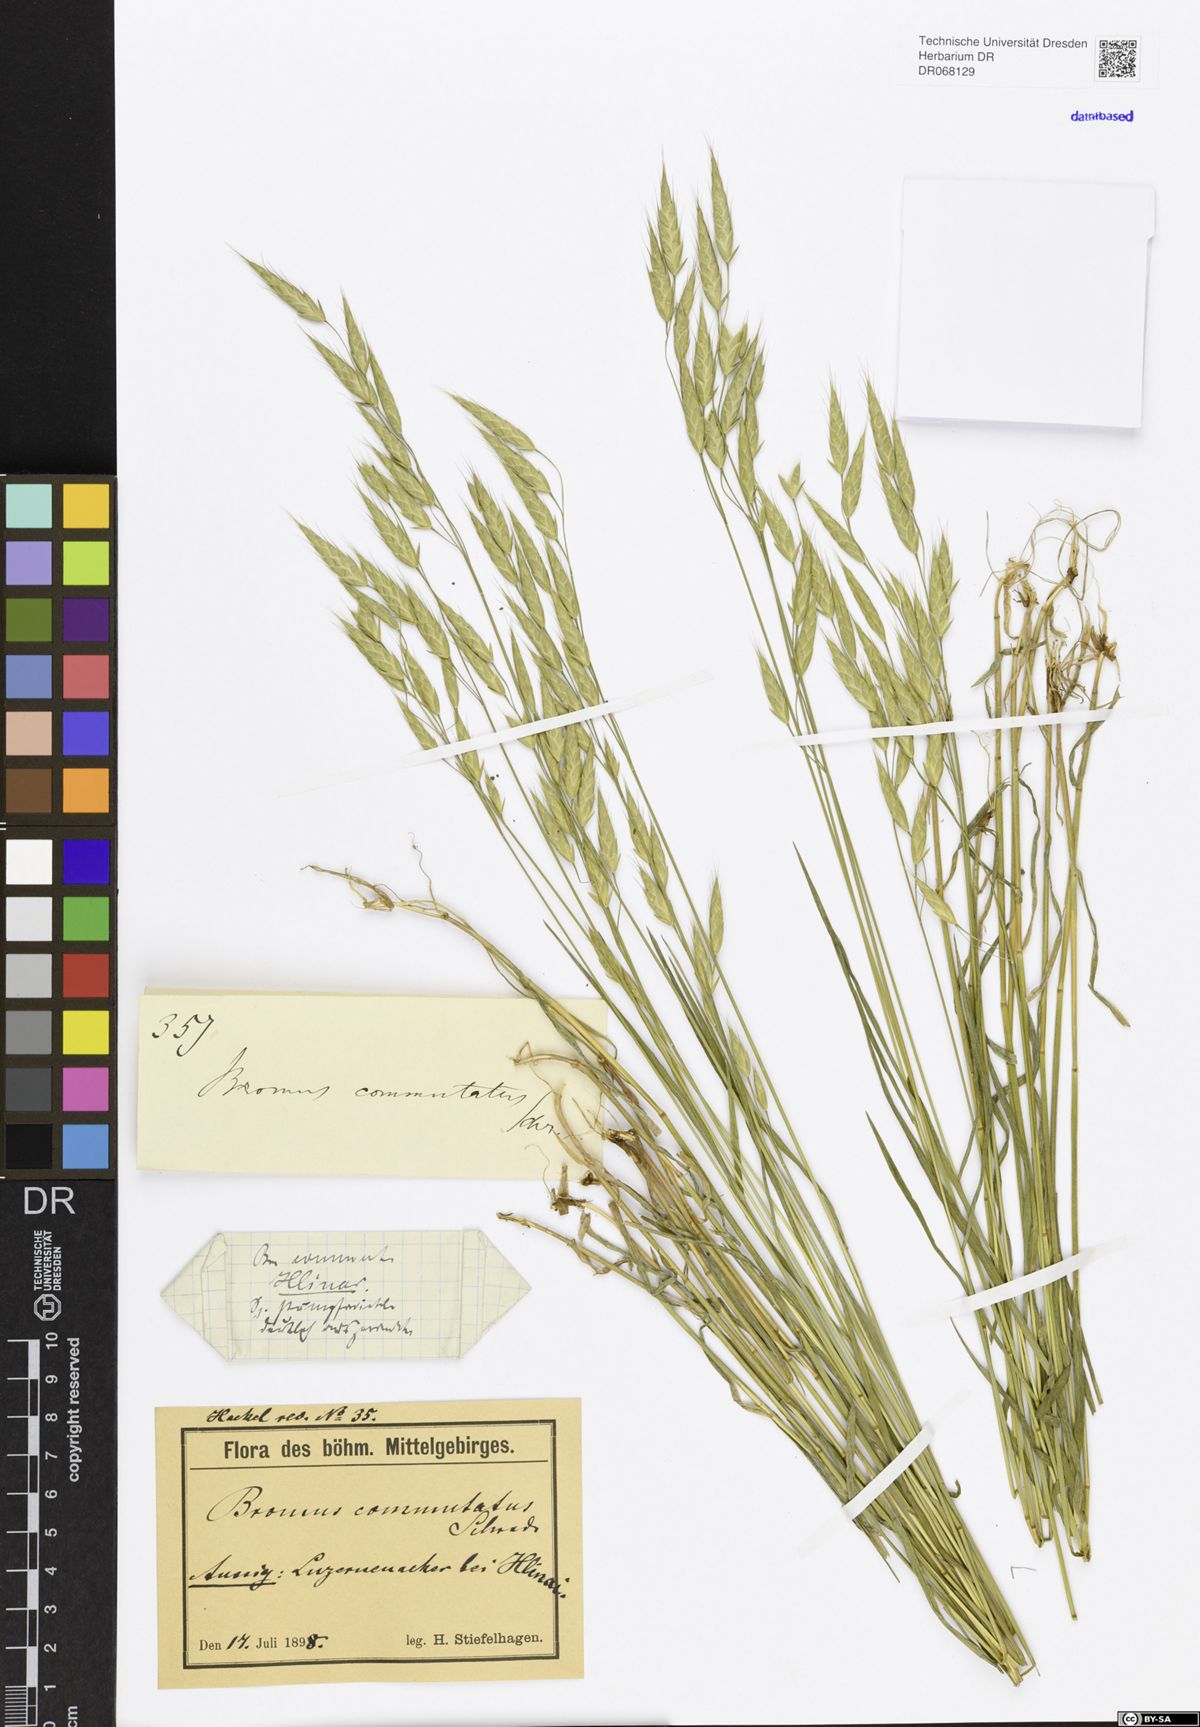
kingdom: Plantae
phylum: Tracheophyta
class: Liliopsida
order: Poales
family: Poaceae
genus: Bromus
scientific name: Bromus commutatus
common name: Meadow brome
